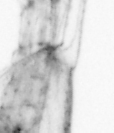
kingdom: Animalia
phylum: Arthropoda
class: Copepoda
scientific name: Copepoda
